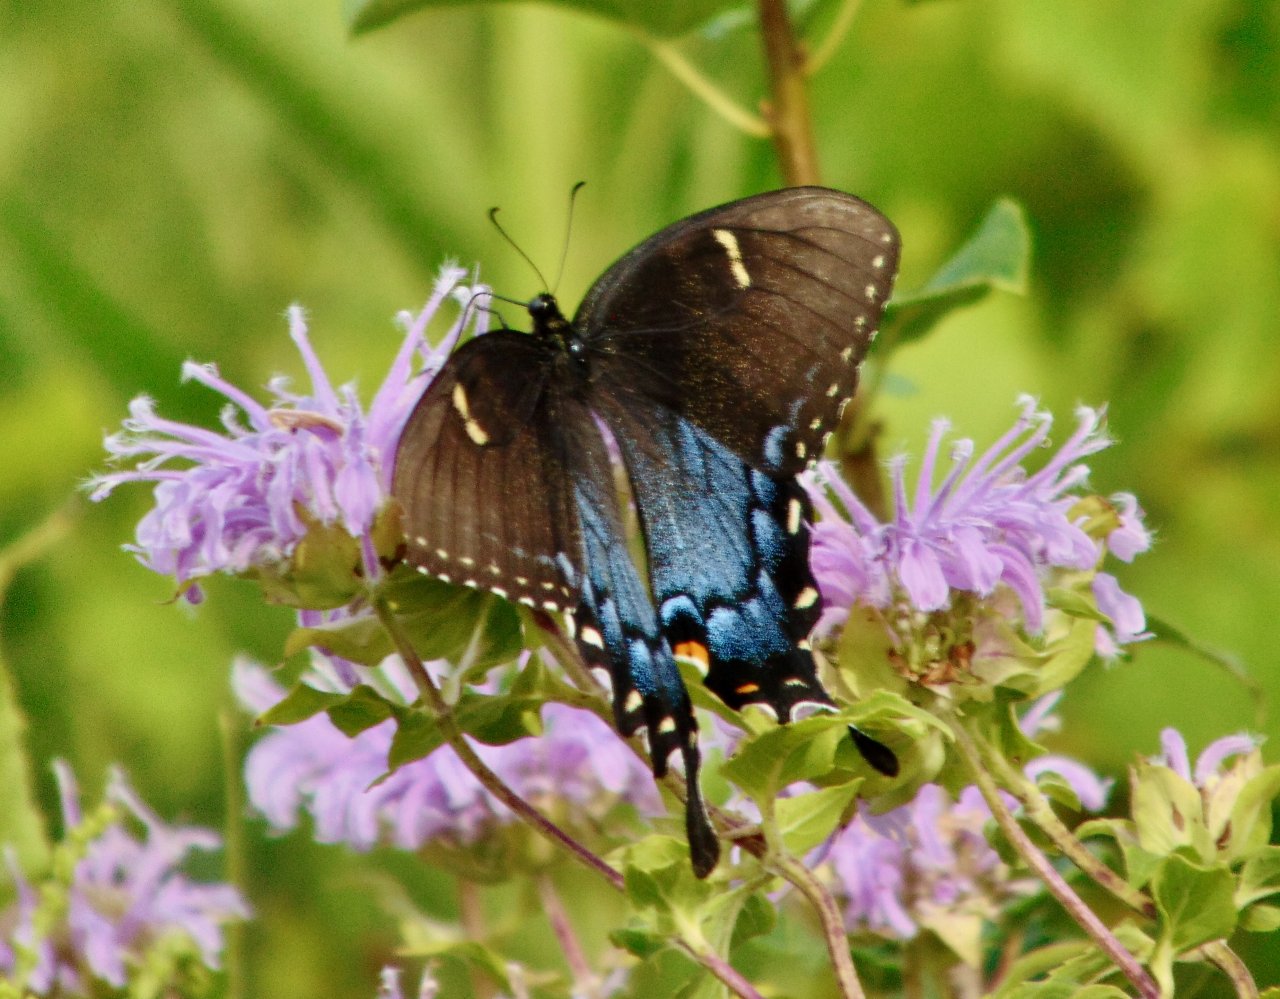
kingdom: Animalia
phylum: Arthropoda
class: Insecta
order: Lepidoptera
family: Papilionidae
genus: Pterourus
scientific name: Pterourus glaucus
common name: Eastern Tiger Swallowtail
